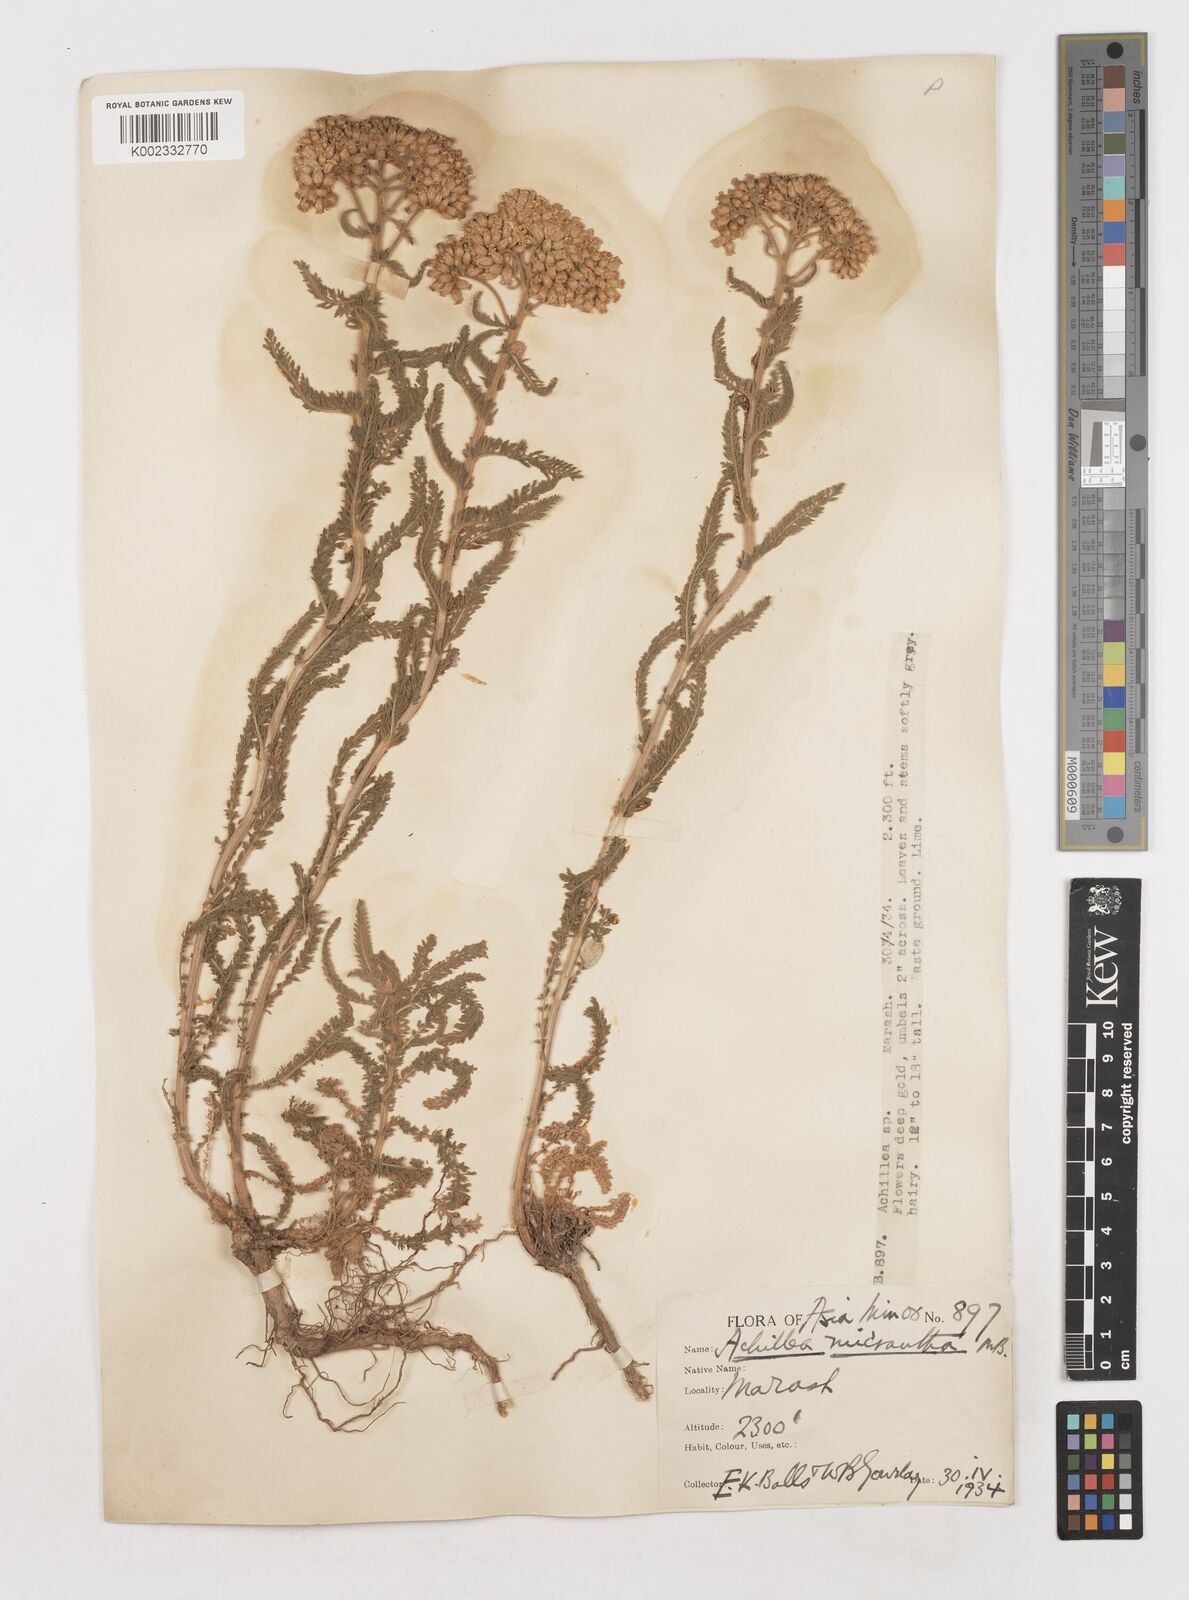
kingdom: Plantae
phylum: Tracheophyta
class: Magnoliopsida
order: Asterales
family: Asteraceae
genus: Achillea
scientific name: Achillea micrantha
